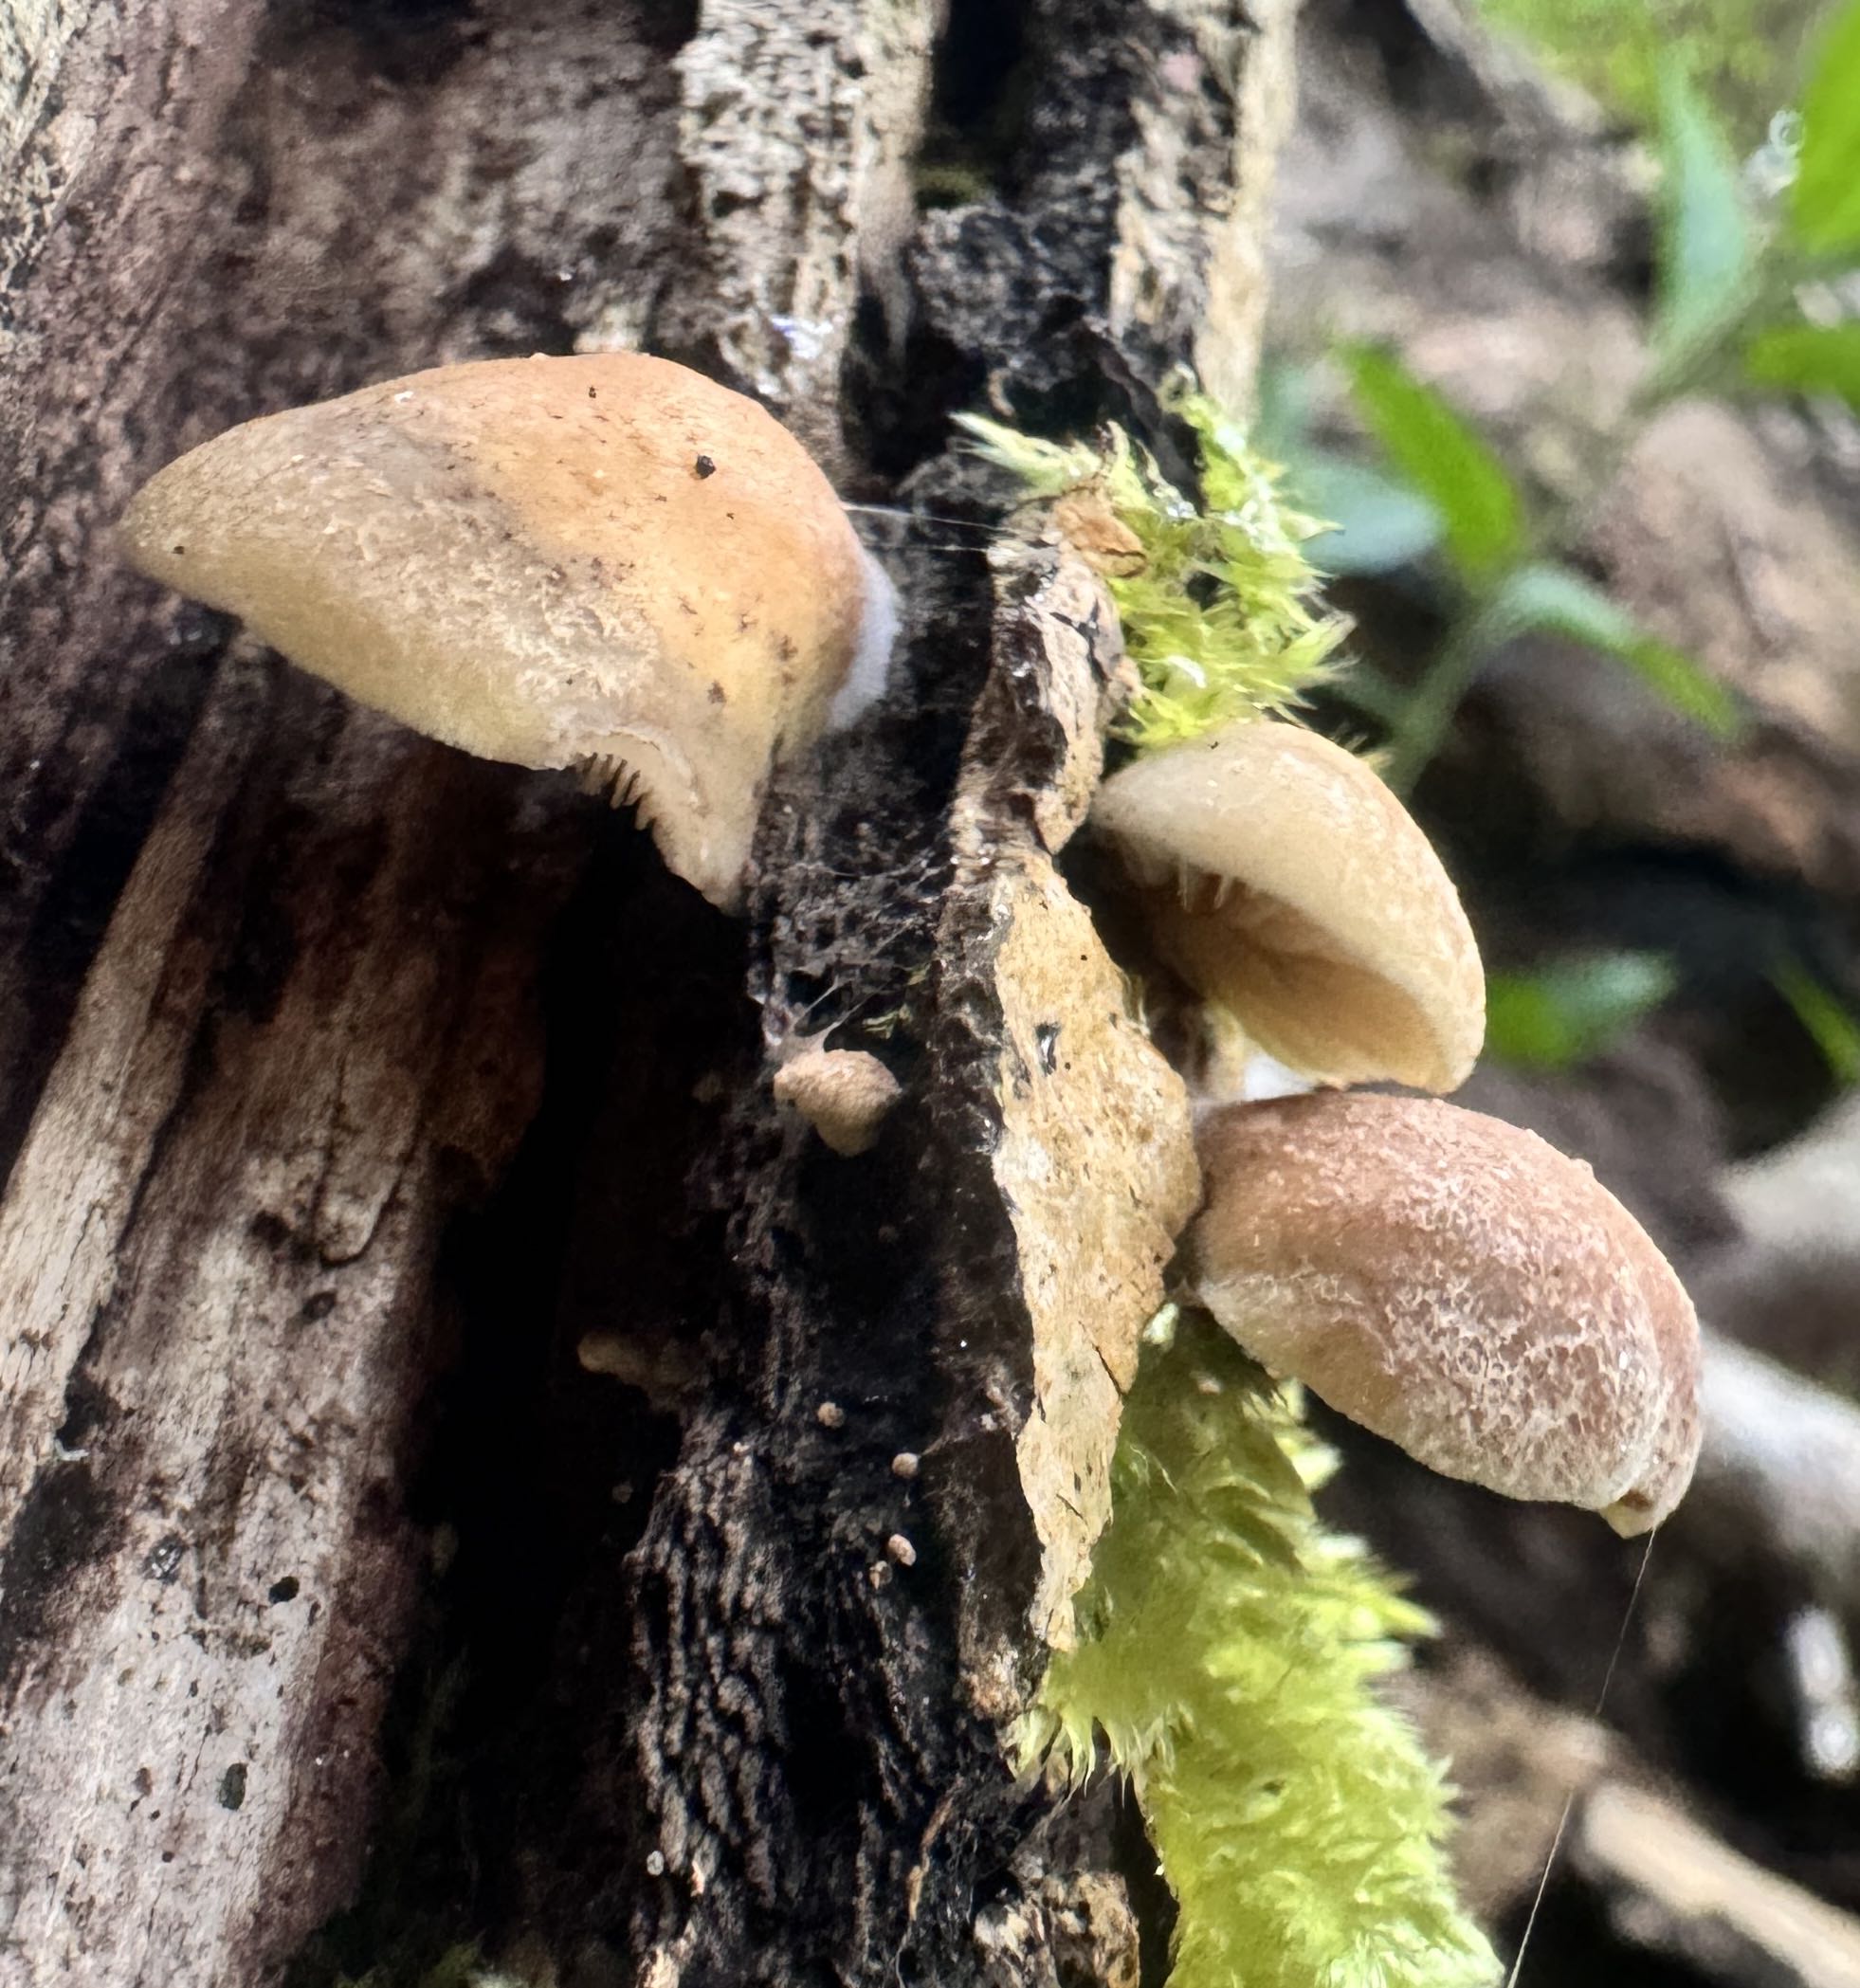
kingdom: Fungi
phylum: Basidiomycota
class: Agaricomycetes
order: Agaricales
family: Crepidotaceae
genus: Crepidotus
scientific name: Crepidotus mollis
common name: blød muslingesvamp
